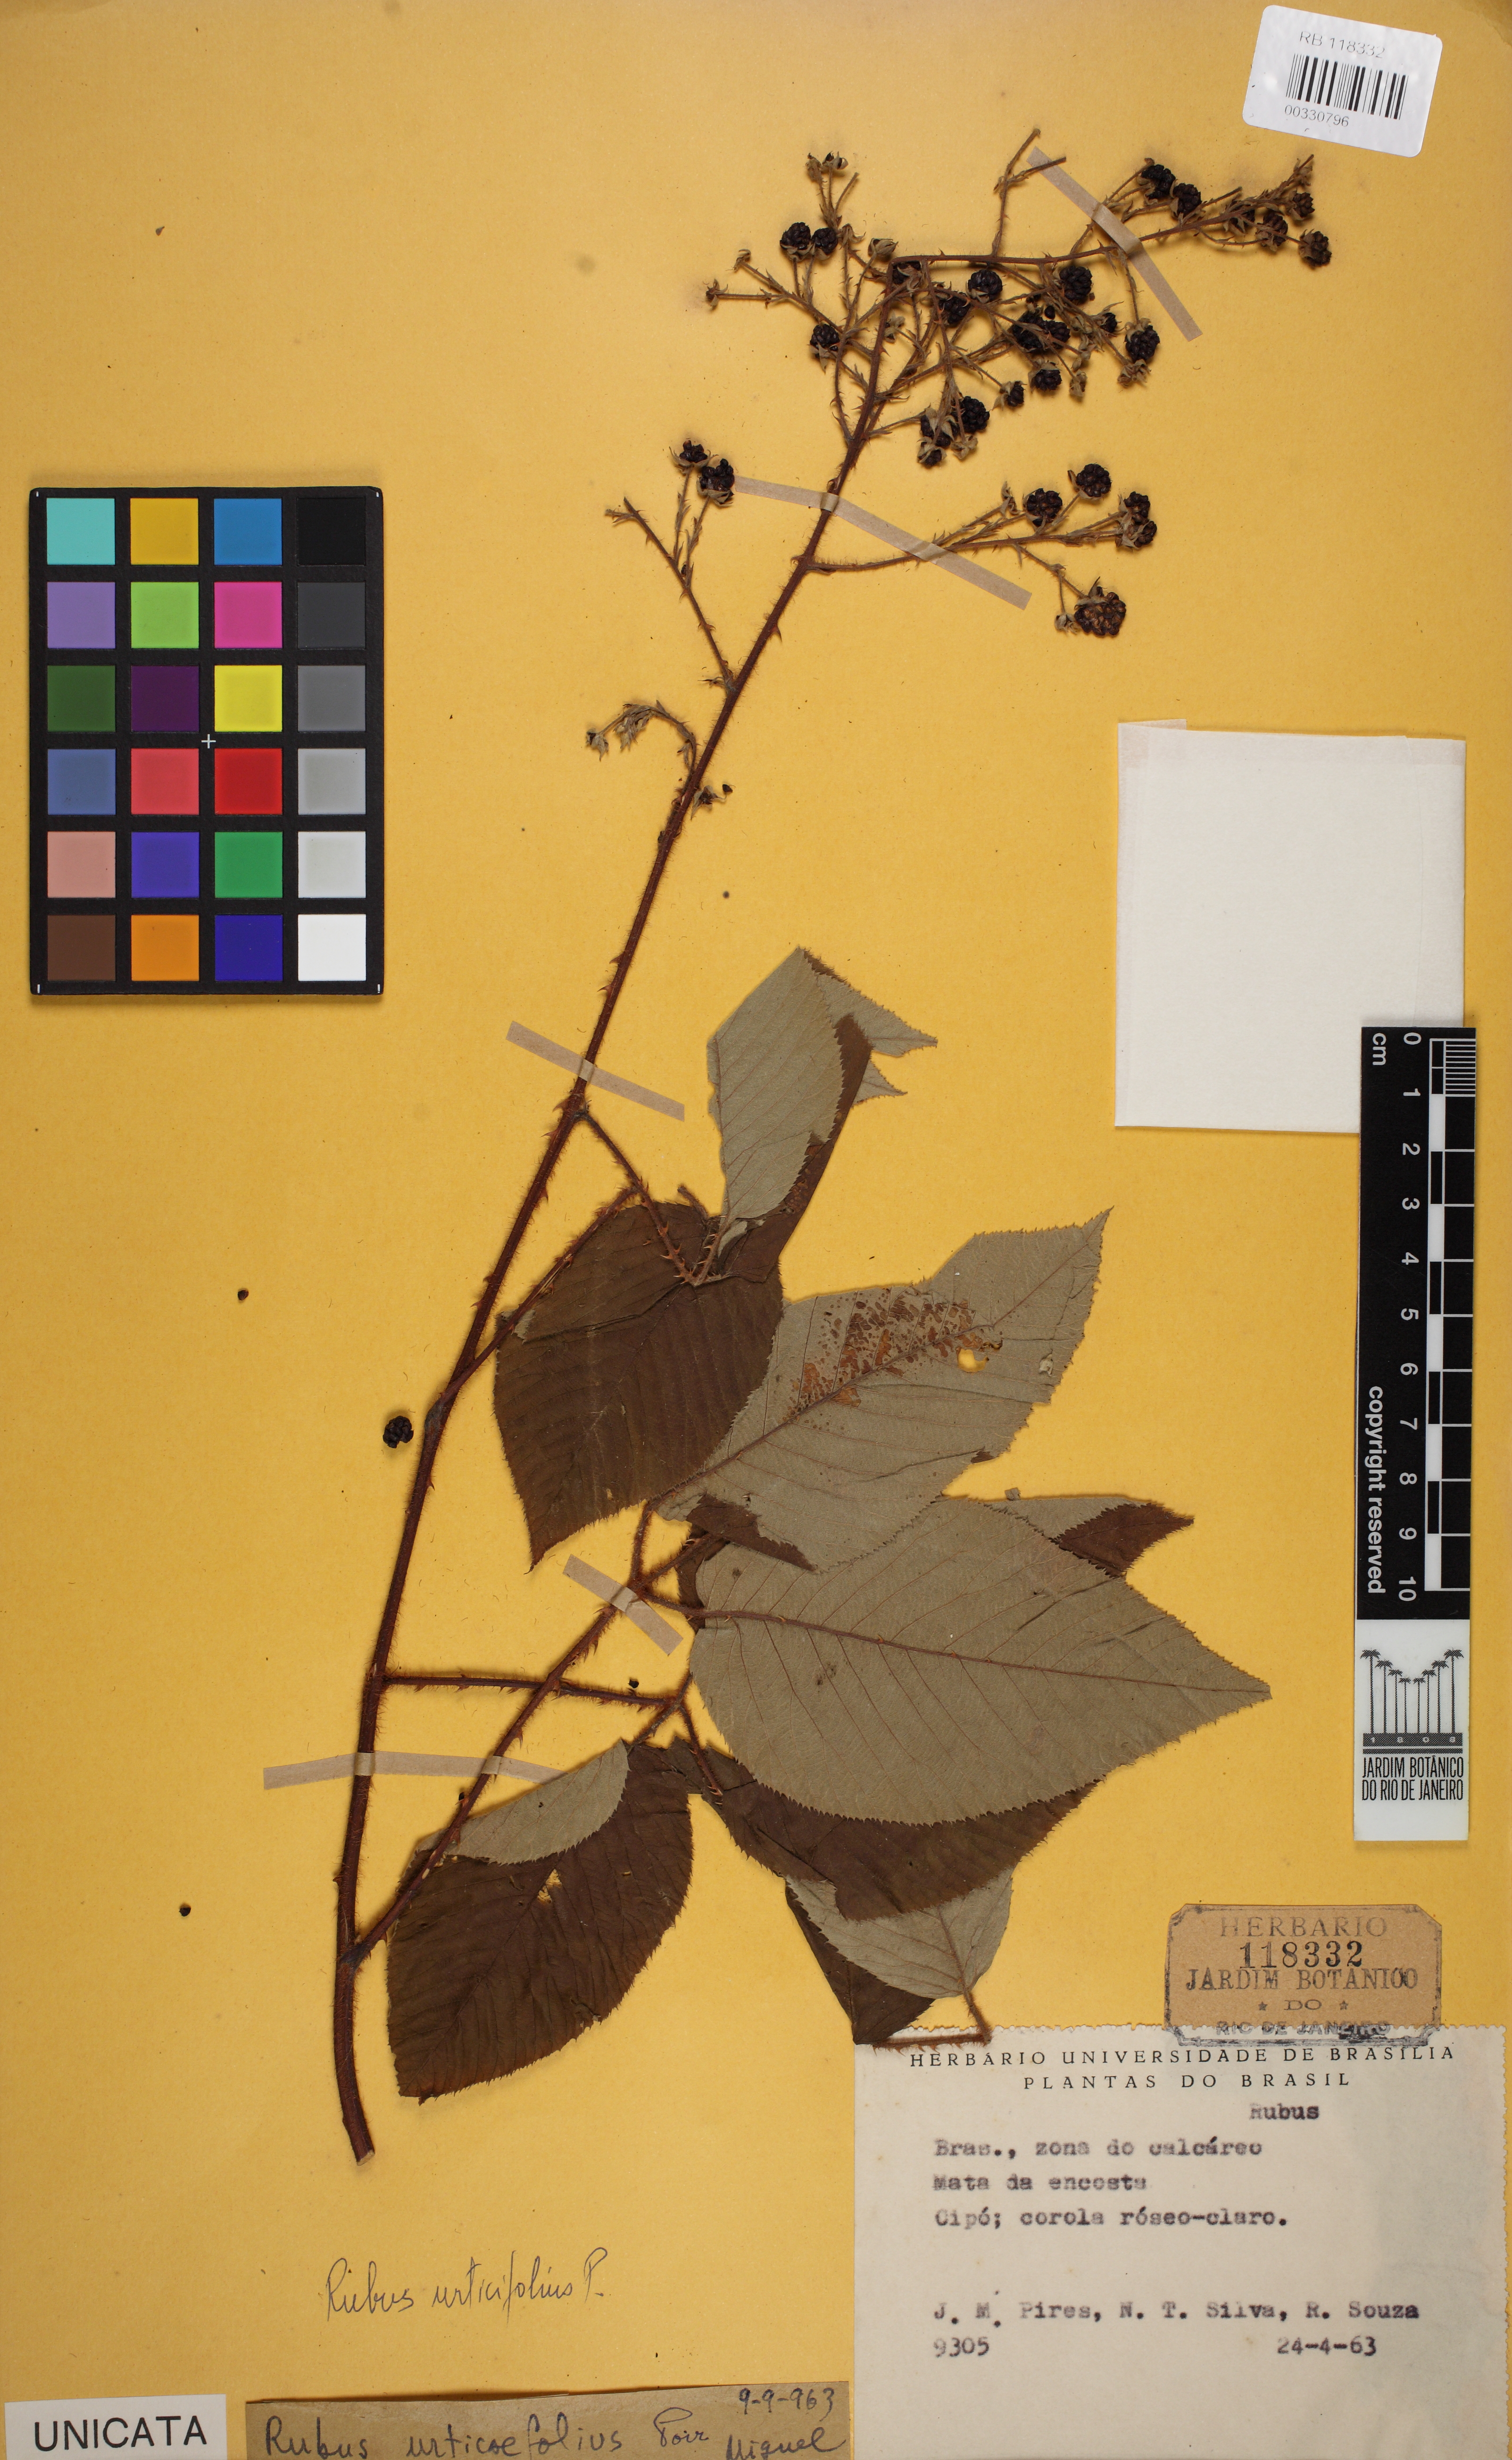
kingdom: Plantae
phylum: Tracheophyta
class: Magnoliopsida
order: Rosales
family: Rosaceae
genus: Rubus
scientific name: Rubus urticifolius
